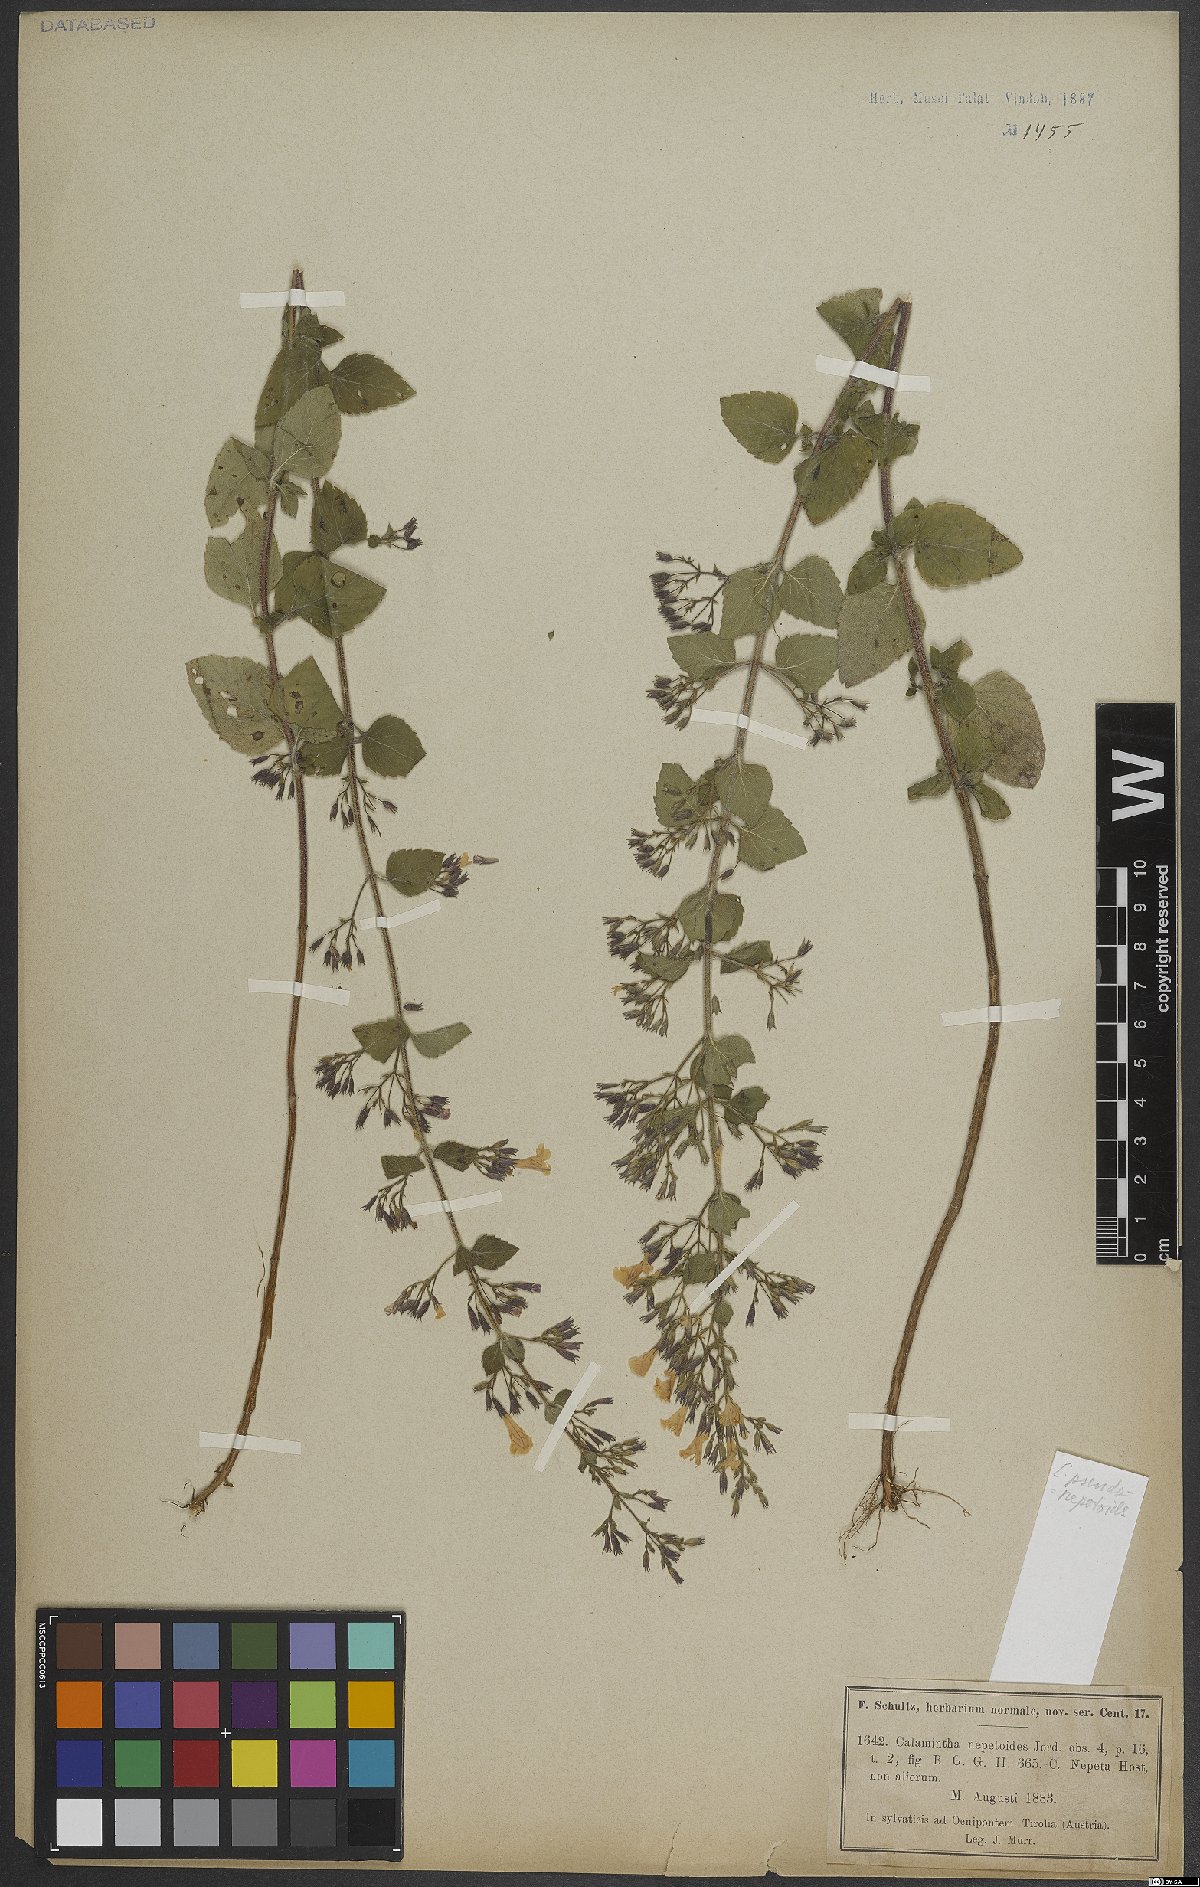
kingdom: Plantae
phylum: Tracheophyta
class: Magnoliopsida
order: Lamiales
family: Lamiaceae
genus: Clinopodium
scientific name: Clinopodium nepeta
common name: Lesser calamint
